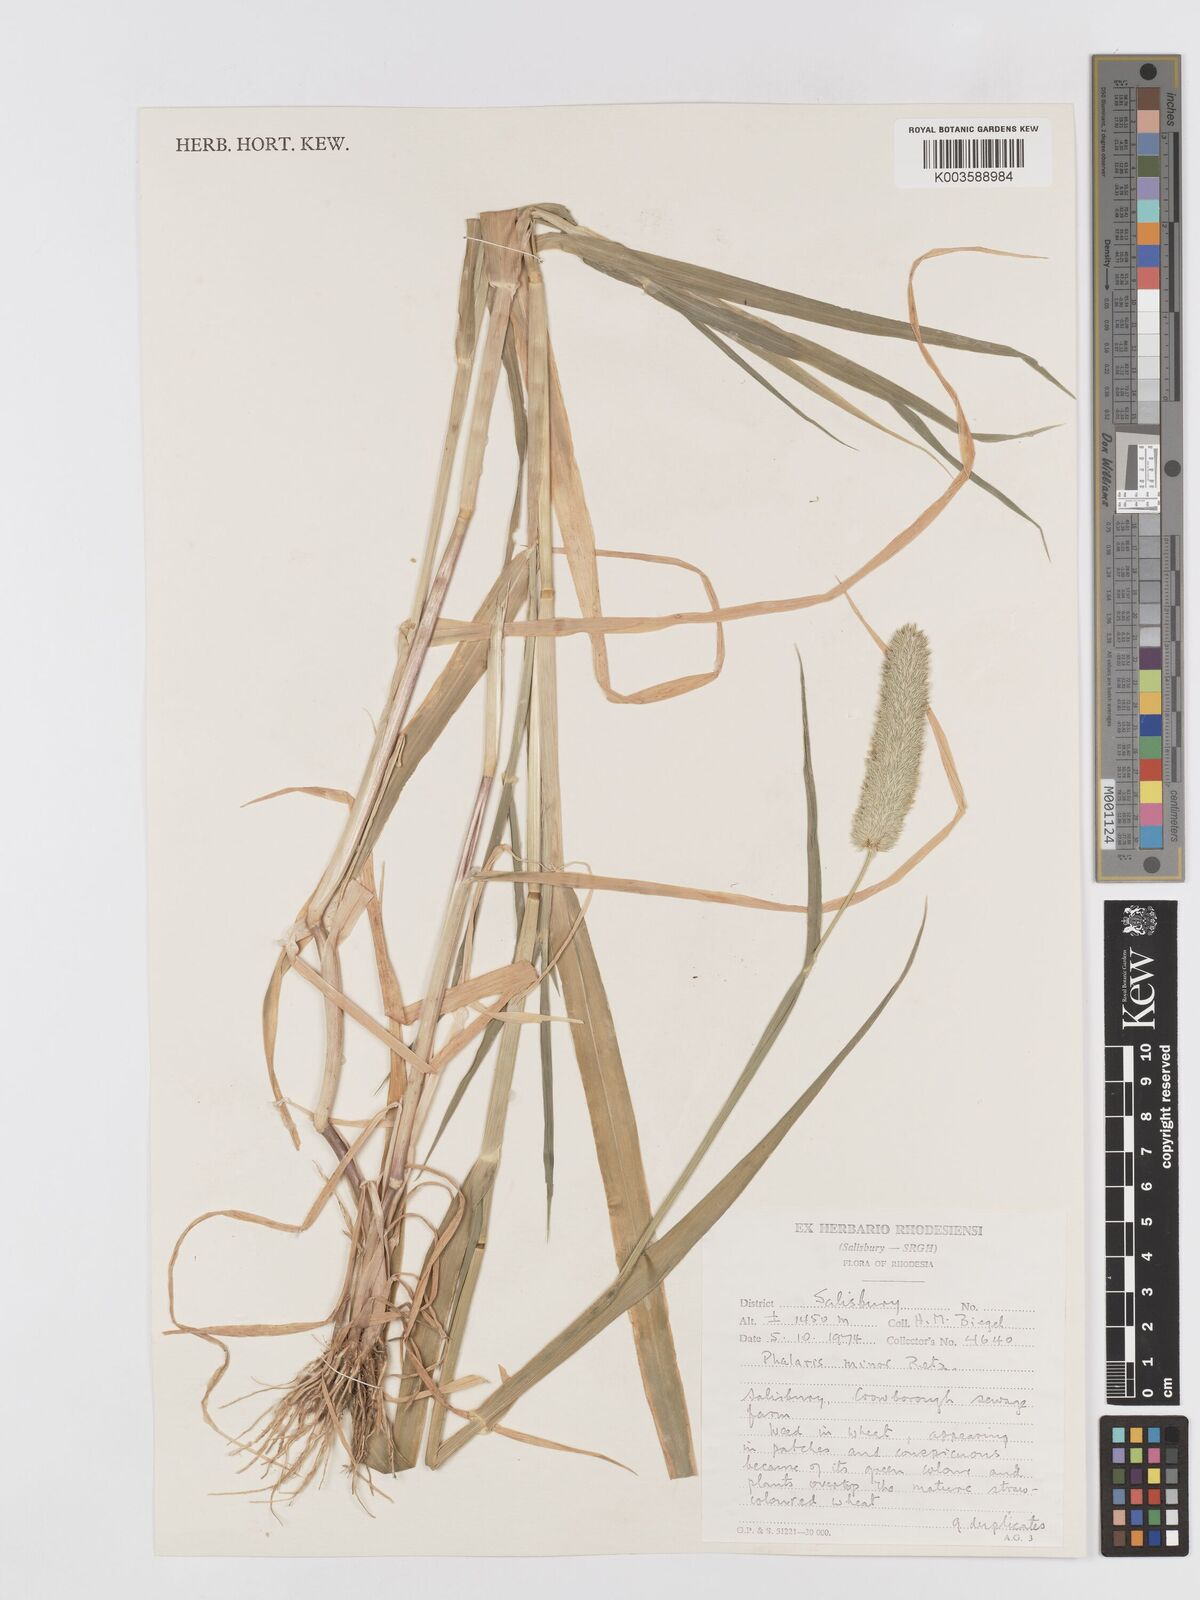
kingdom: Plantae
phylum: Tracheophyta
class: Liliopsida
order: Poales
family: Poaceae
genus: Phalaris
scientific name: Phalaris minor
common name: Littleseed canarygrass
